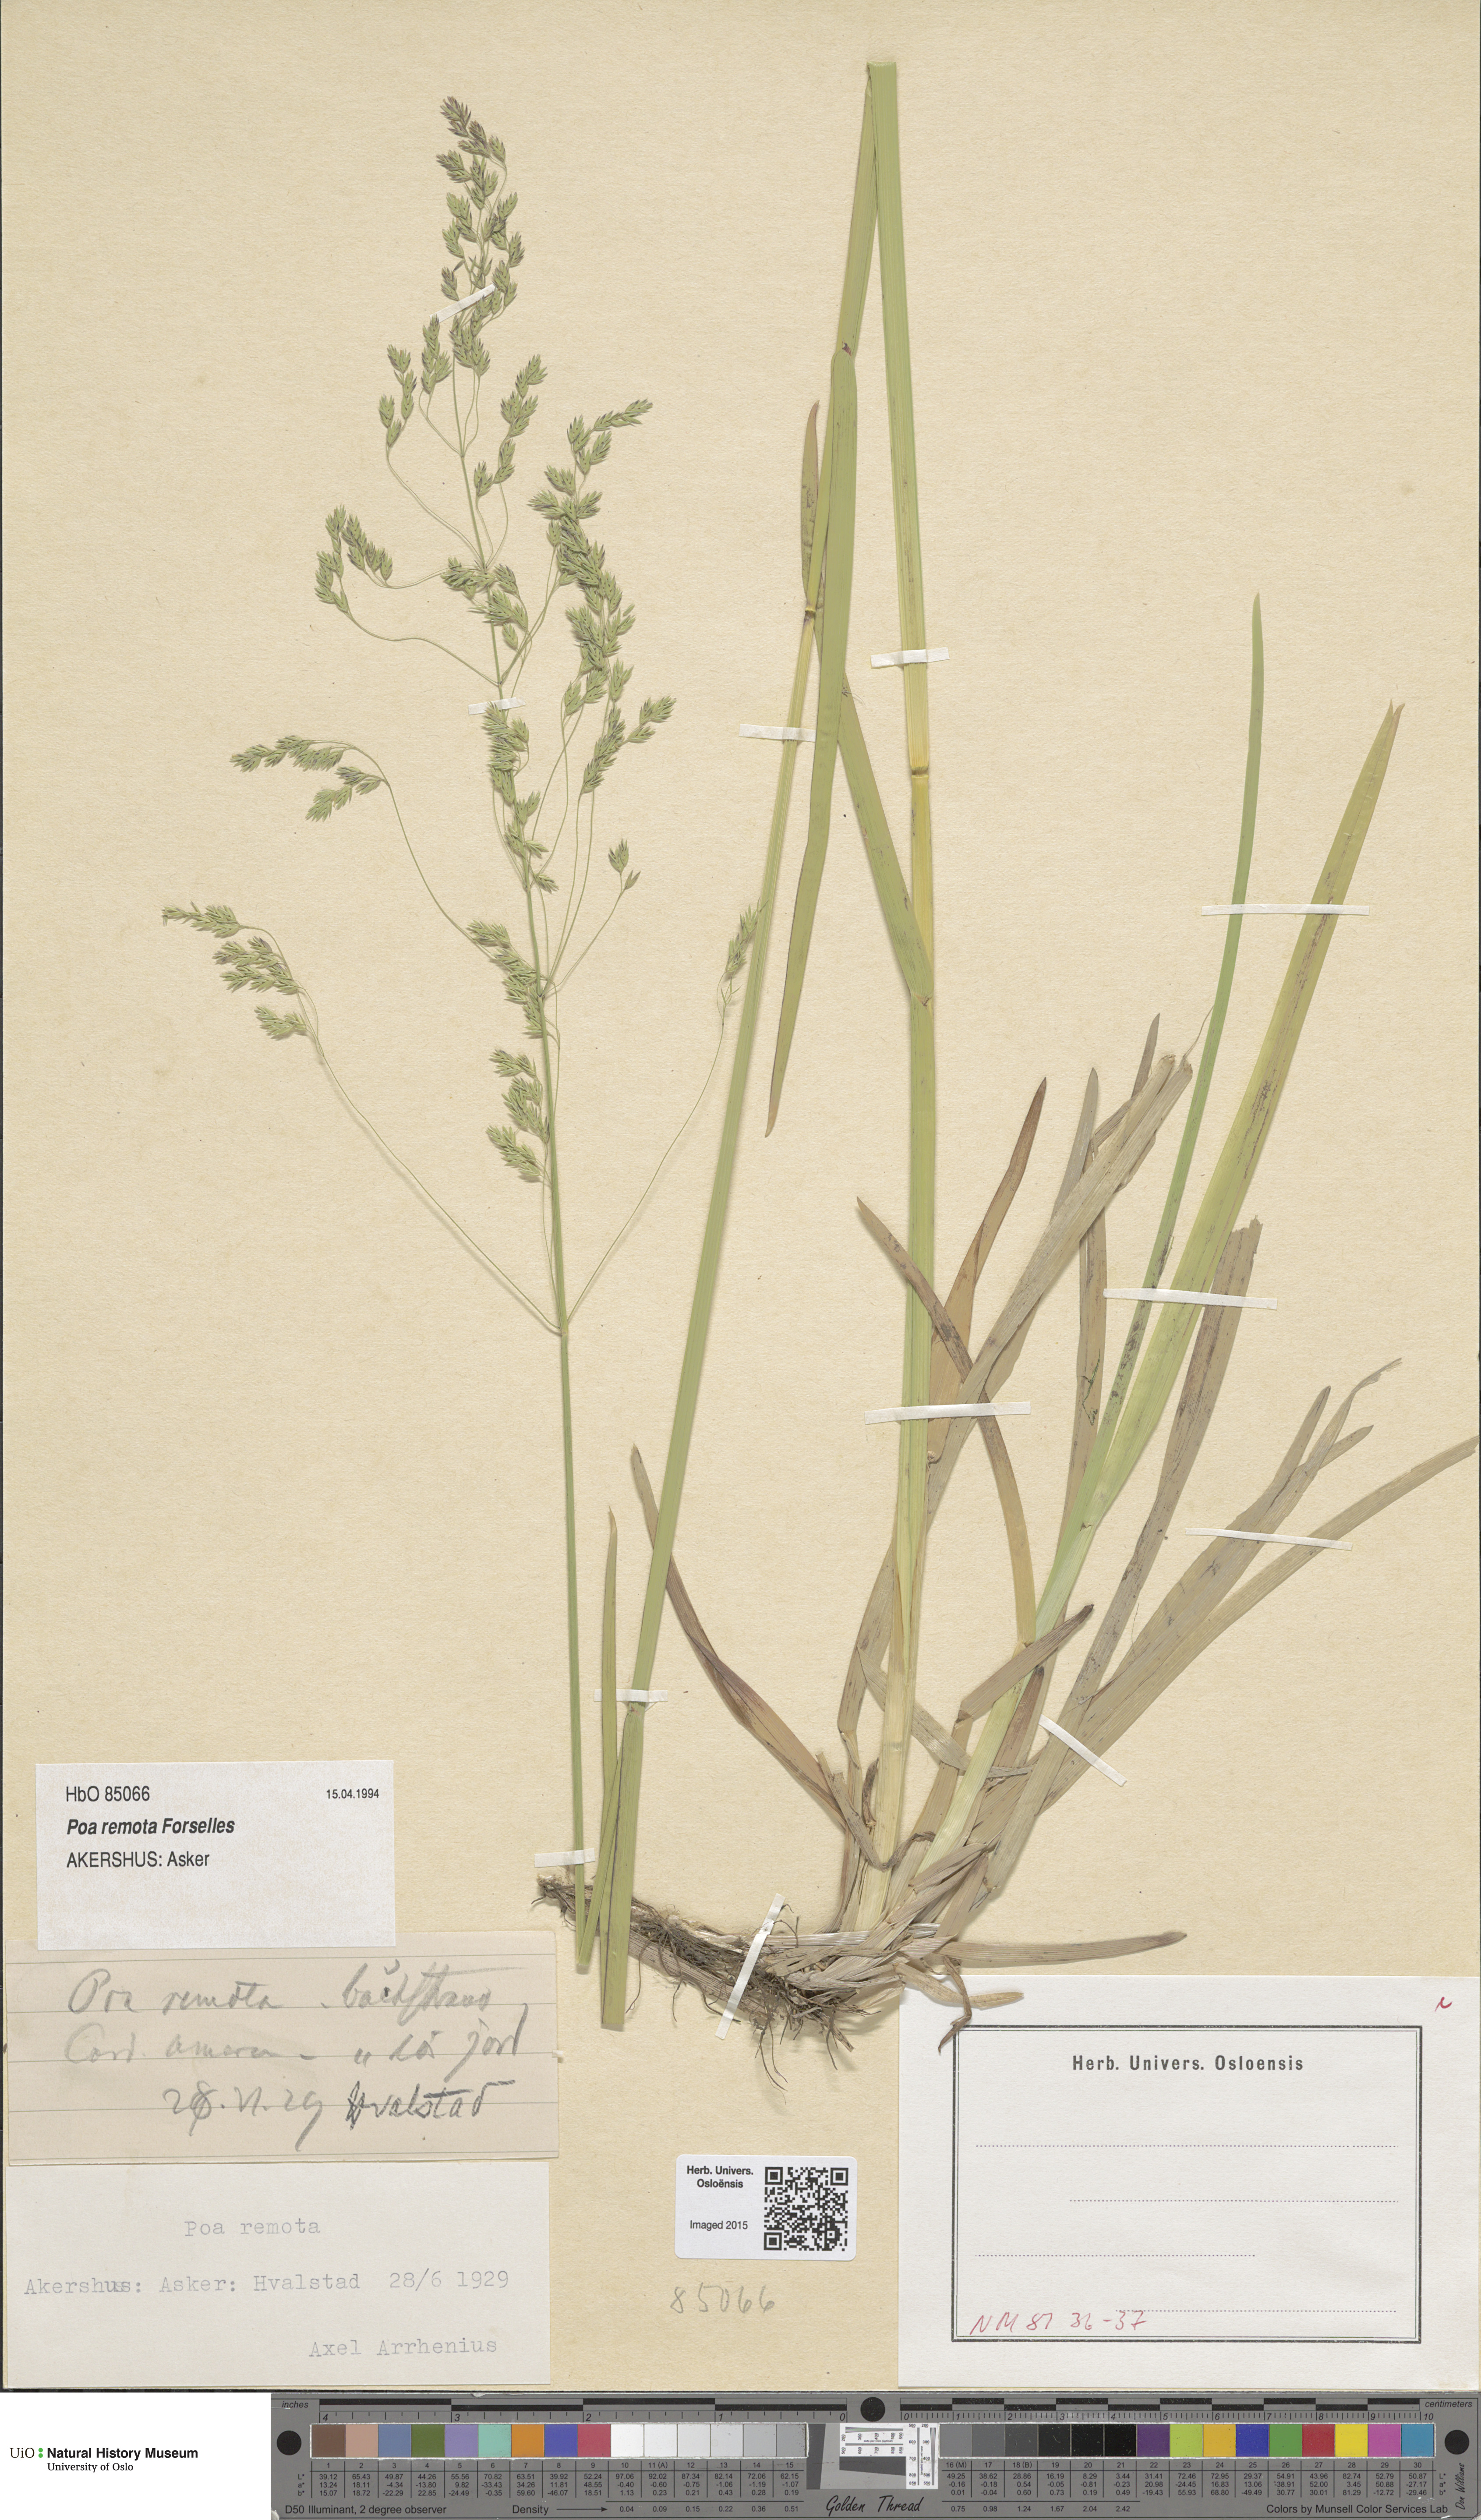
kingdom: Plantae
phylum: Tracheophyta
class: Liliopsida
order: Poales
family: Poaceae
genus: Poa
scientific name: Poa remota
